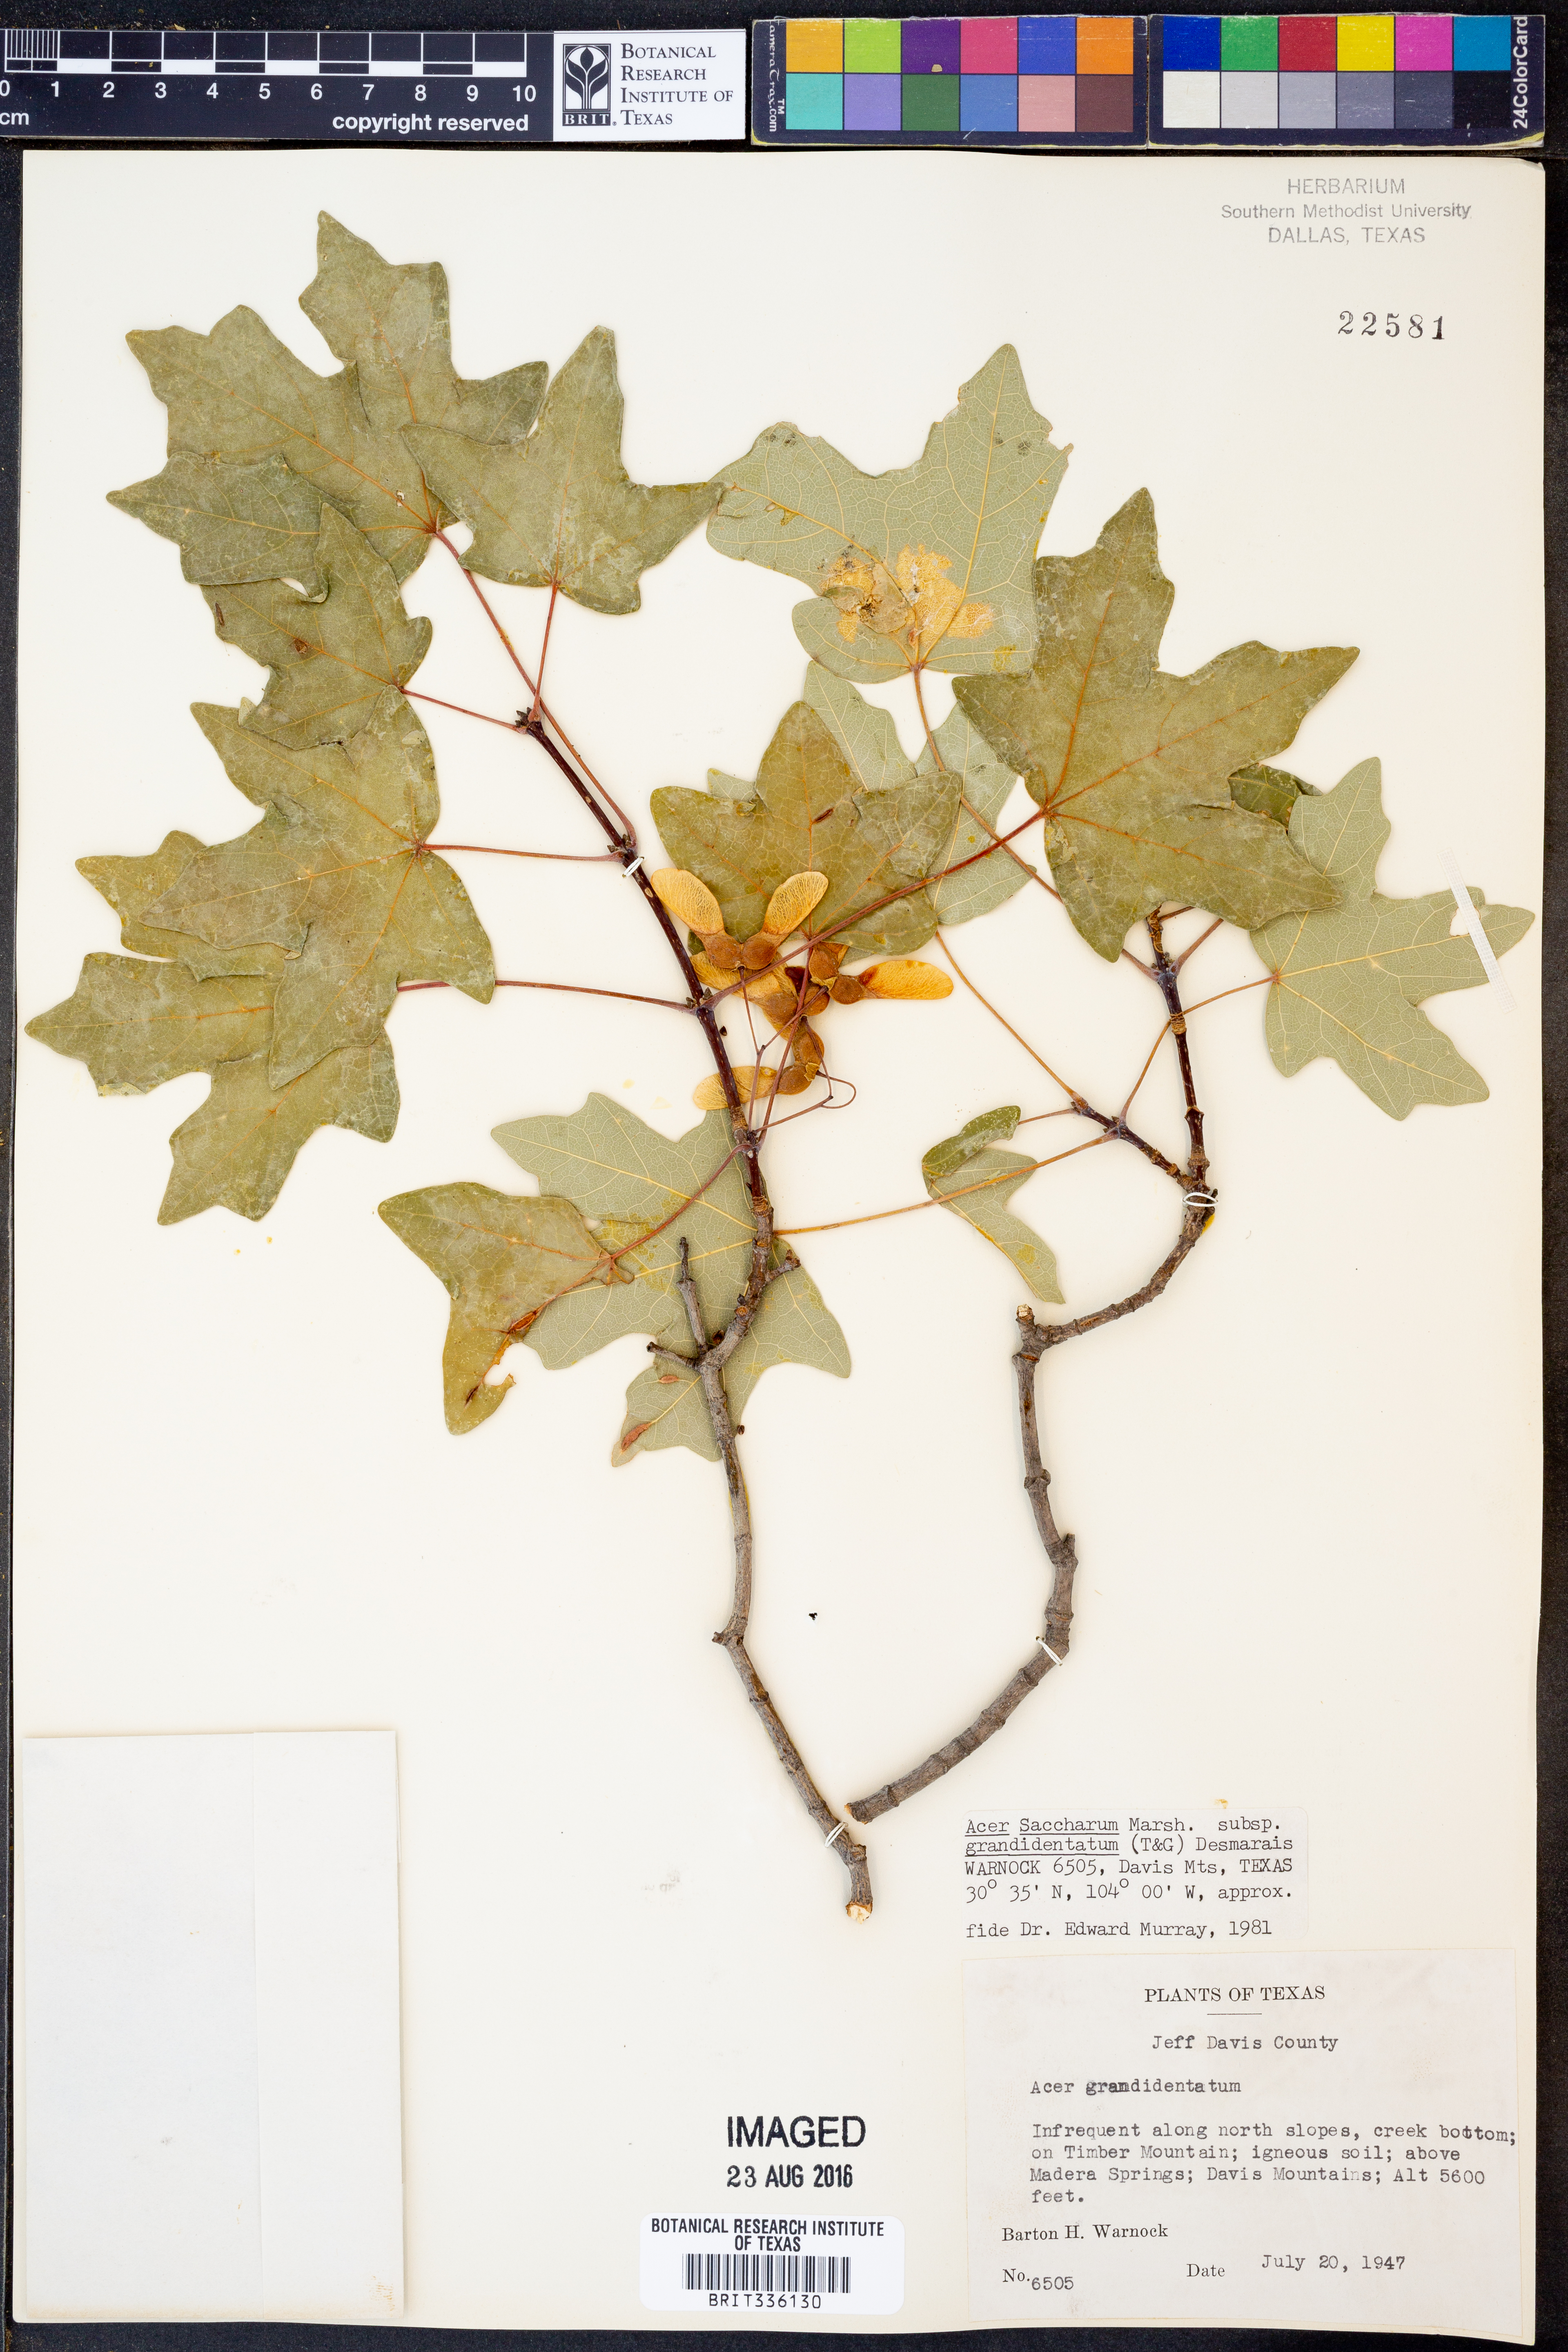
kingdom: Plantae
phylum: Tracheophyta
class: Magnoliopsida
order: Sapindales
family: Sapindaceae
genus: Acer
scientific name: Acer grandidentatum
